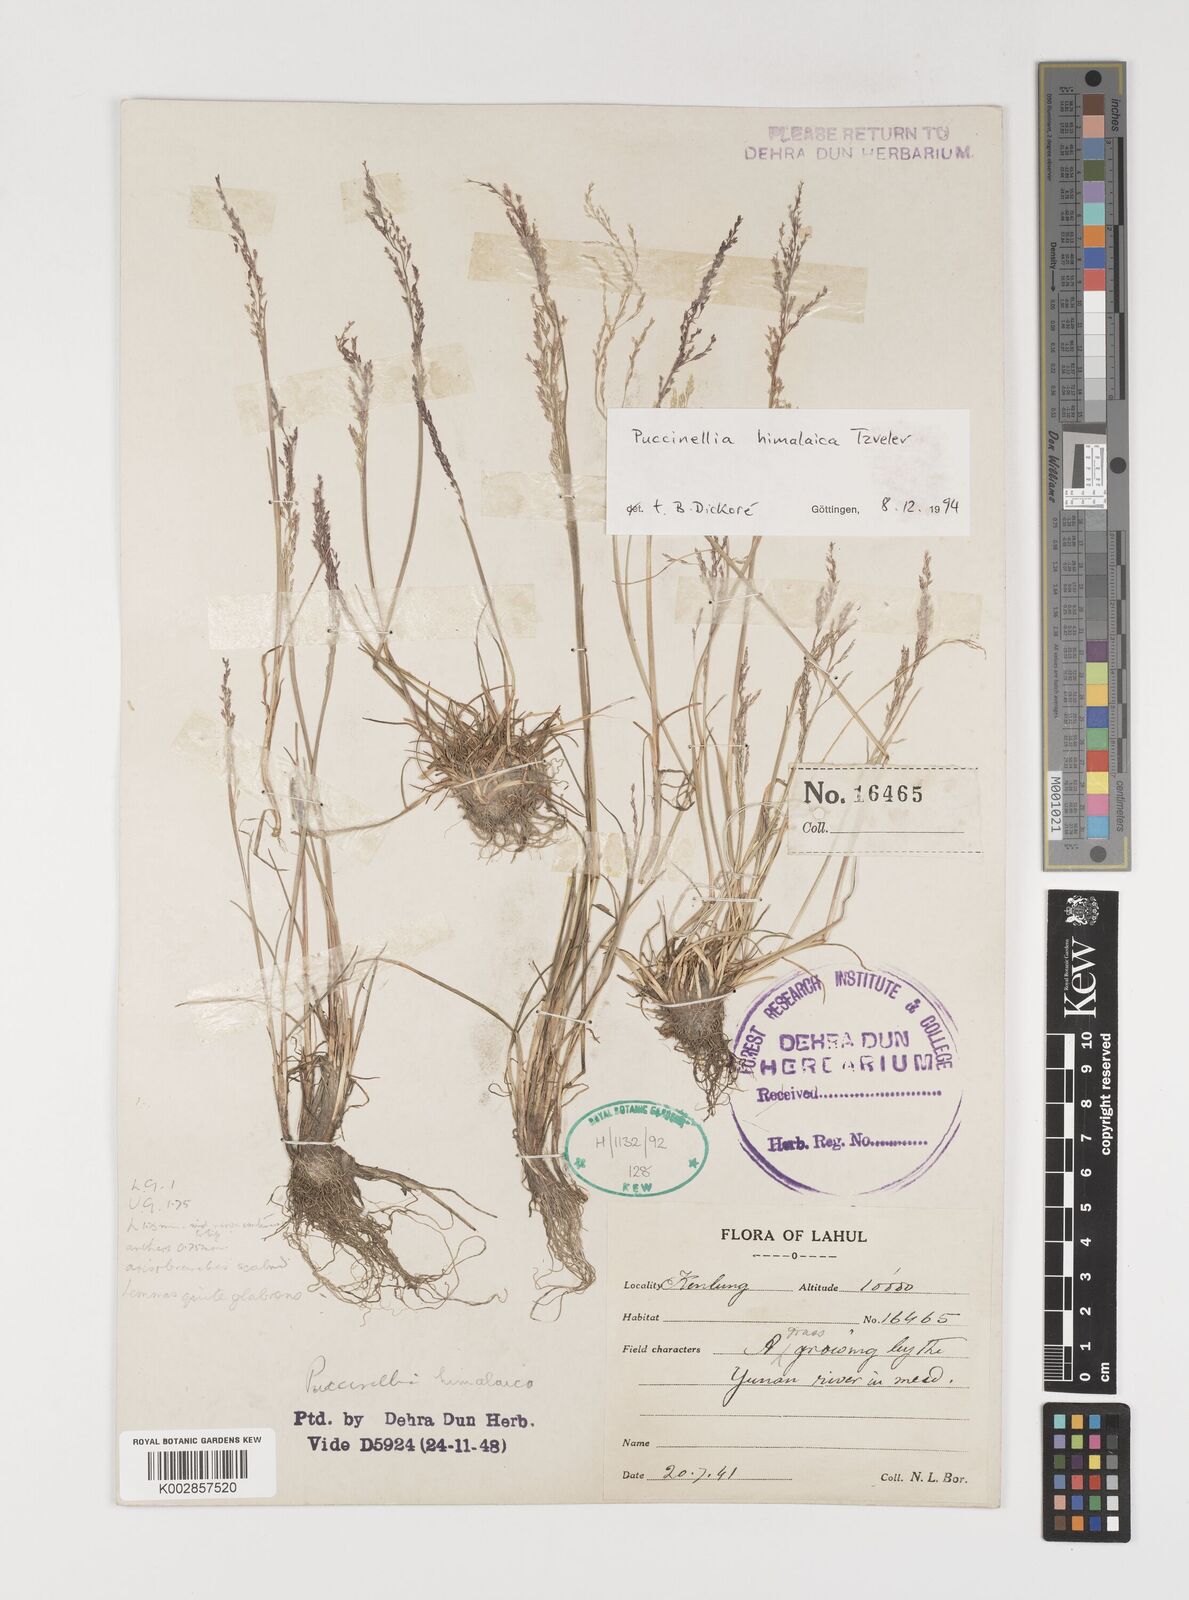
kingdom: Plantae
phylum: Tracheophyta
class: Liliopsida
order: Poales
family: Poaceae
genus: Puccinellia
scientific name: Puccinellia himalaica
